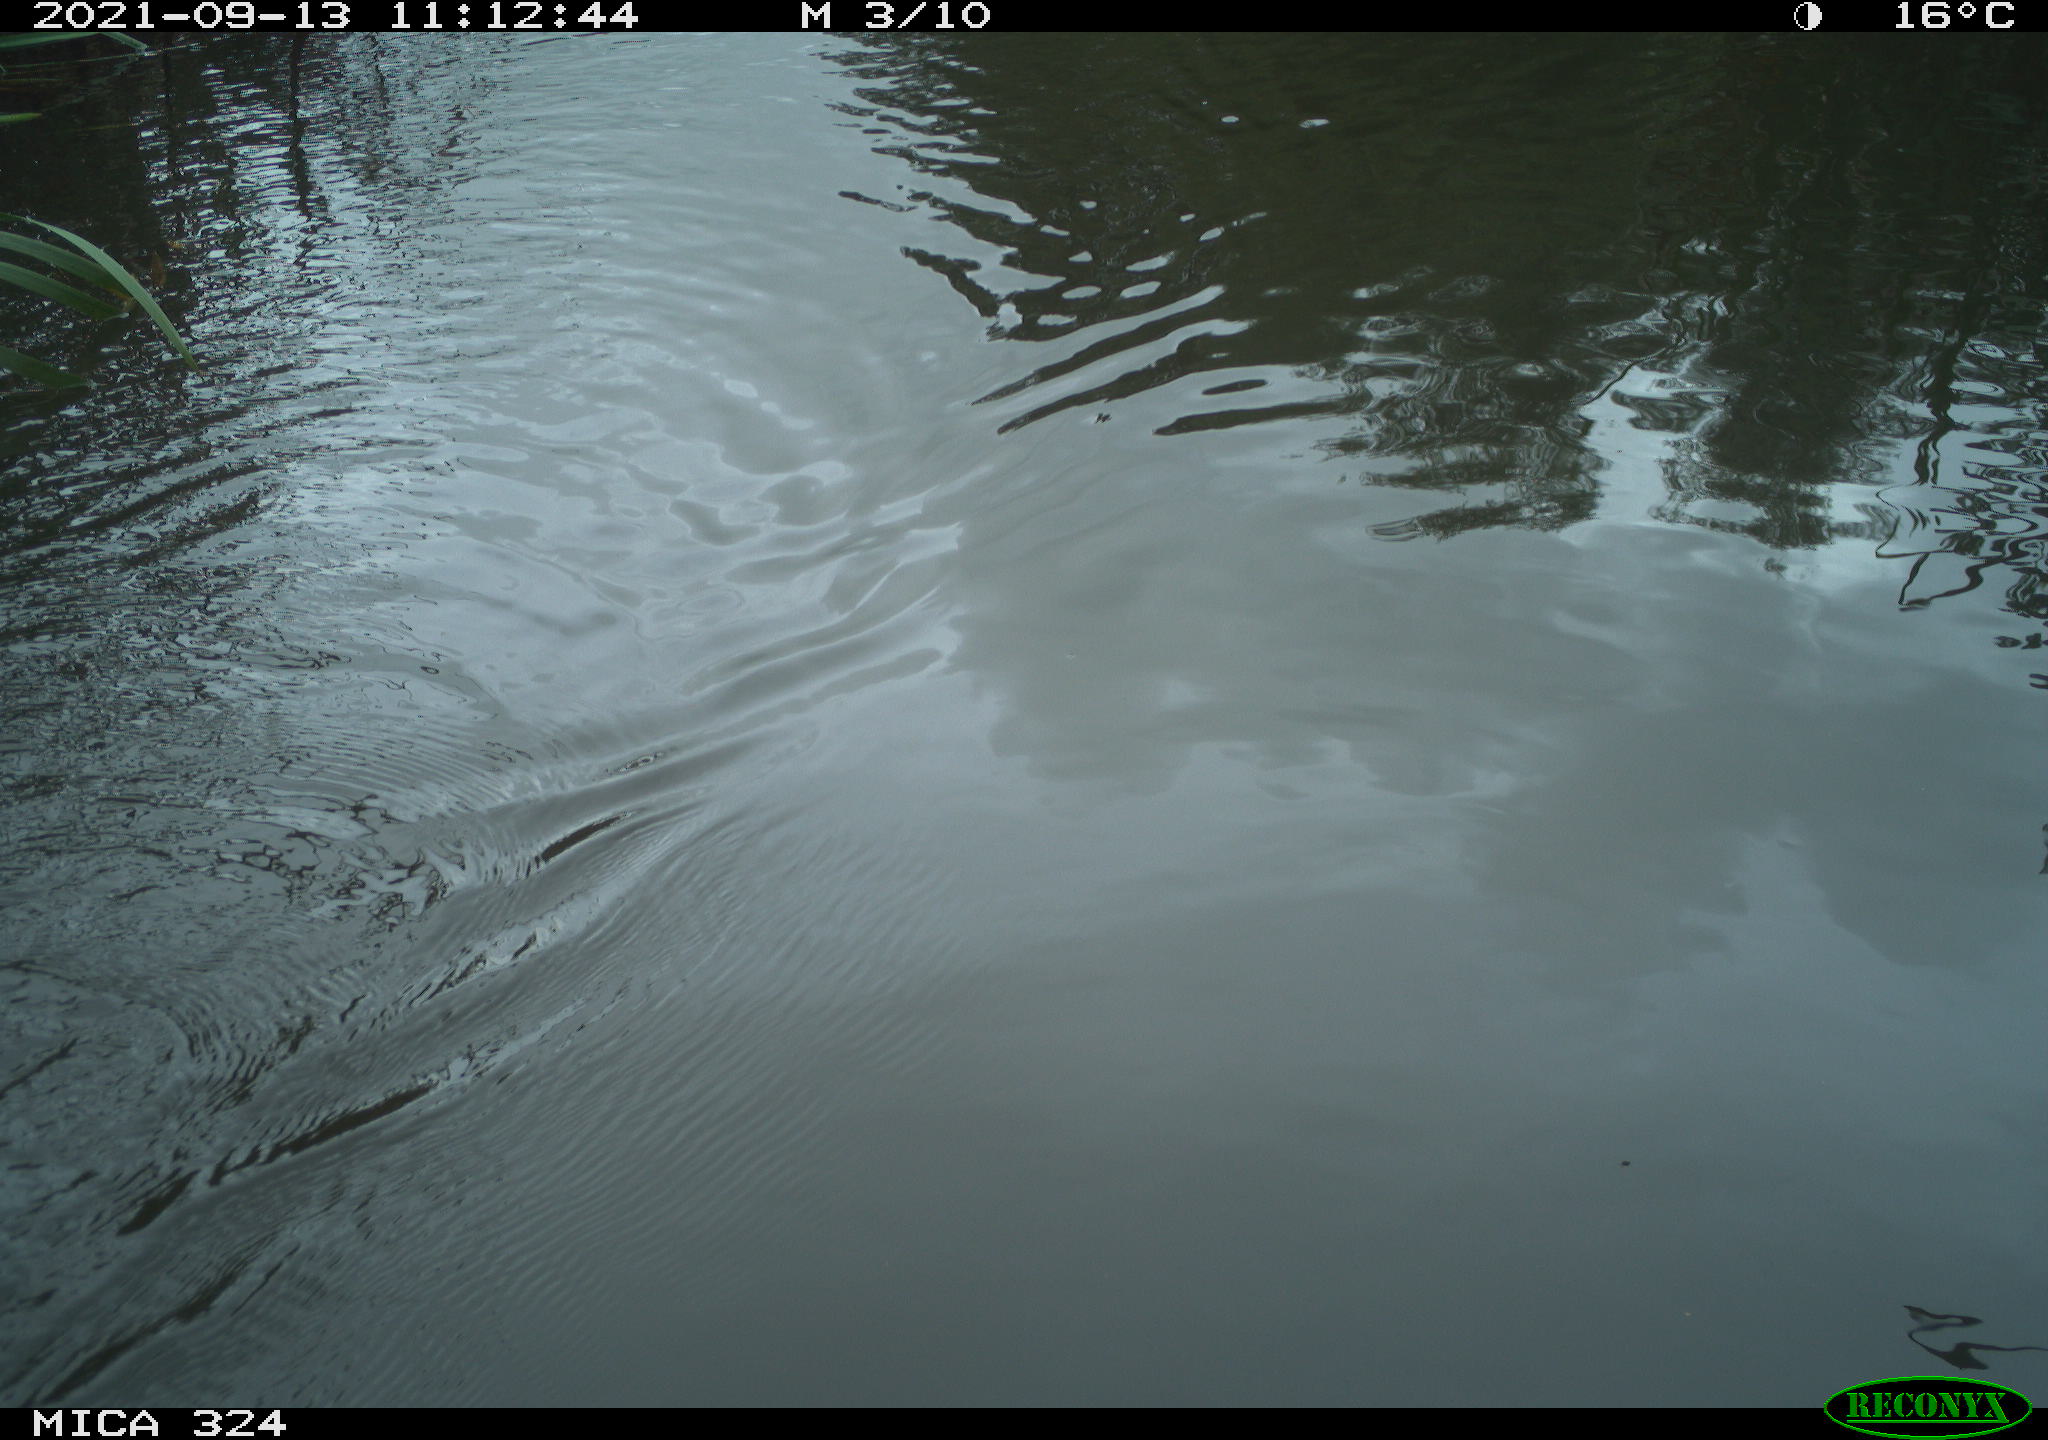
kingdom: Animalia
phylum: Chordata
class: Mammalia
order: Rodentia
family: Cricetidae
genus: Ondatra
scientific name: Ondatra zibethicus
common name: Muskrat
